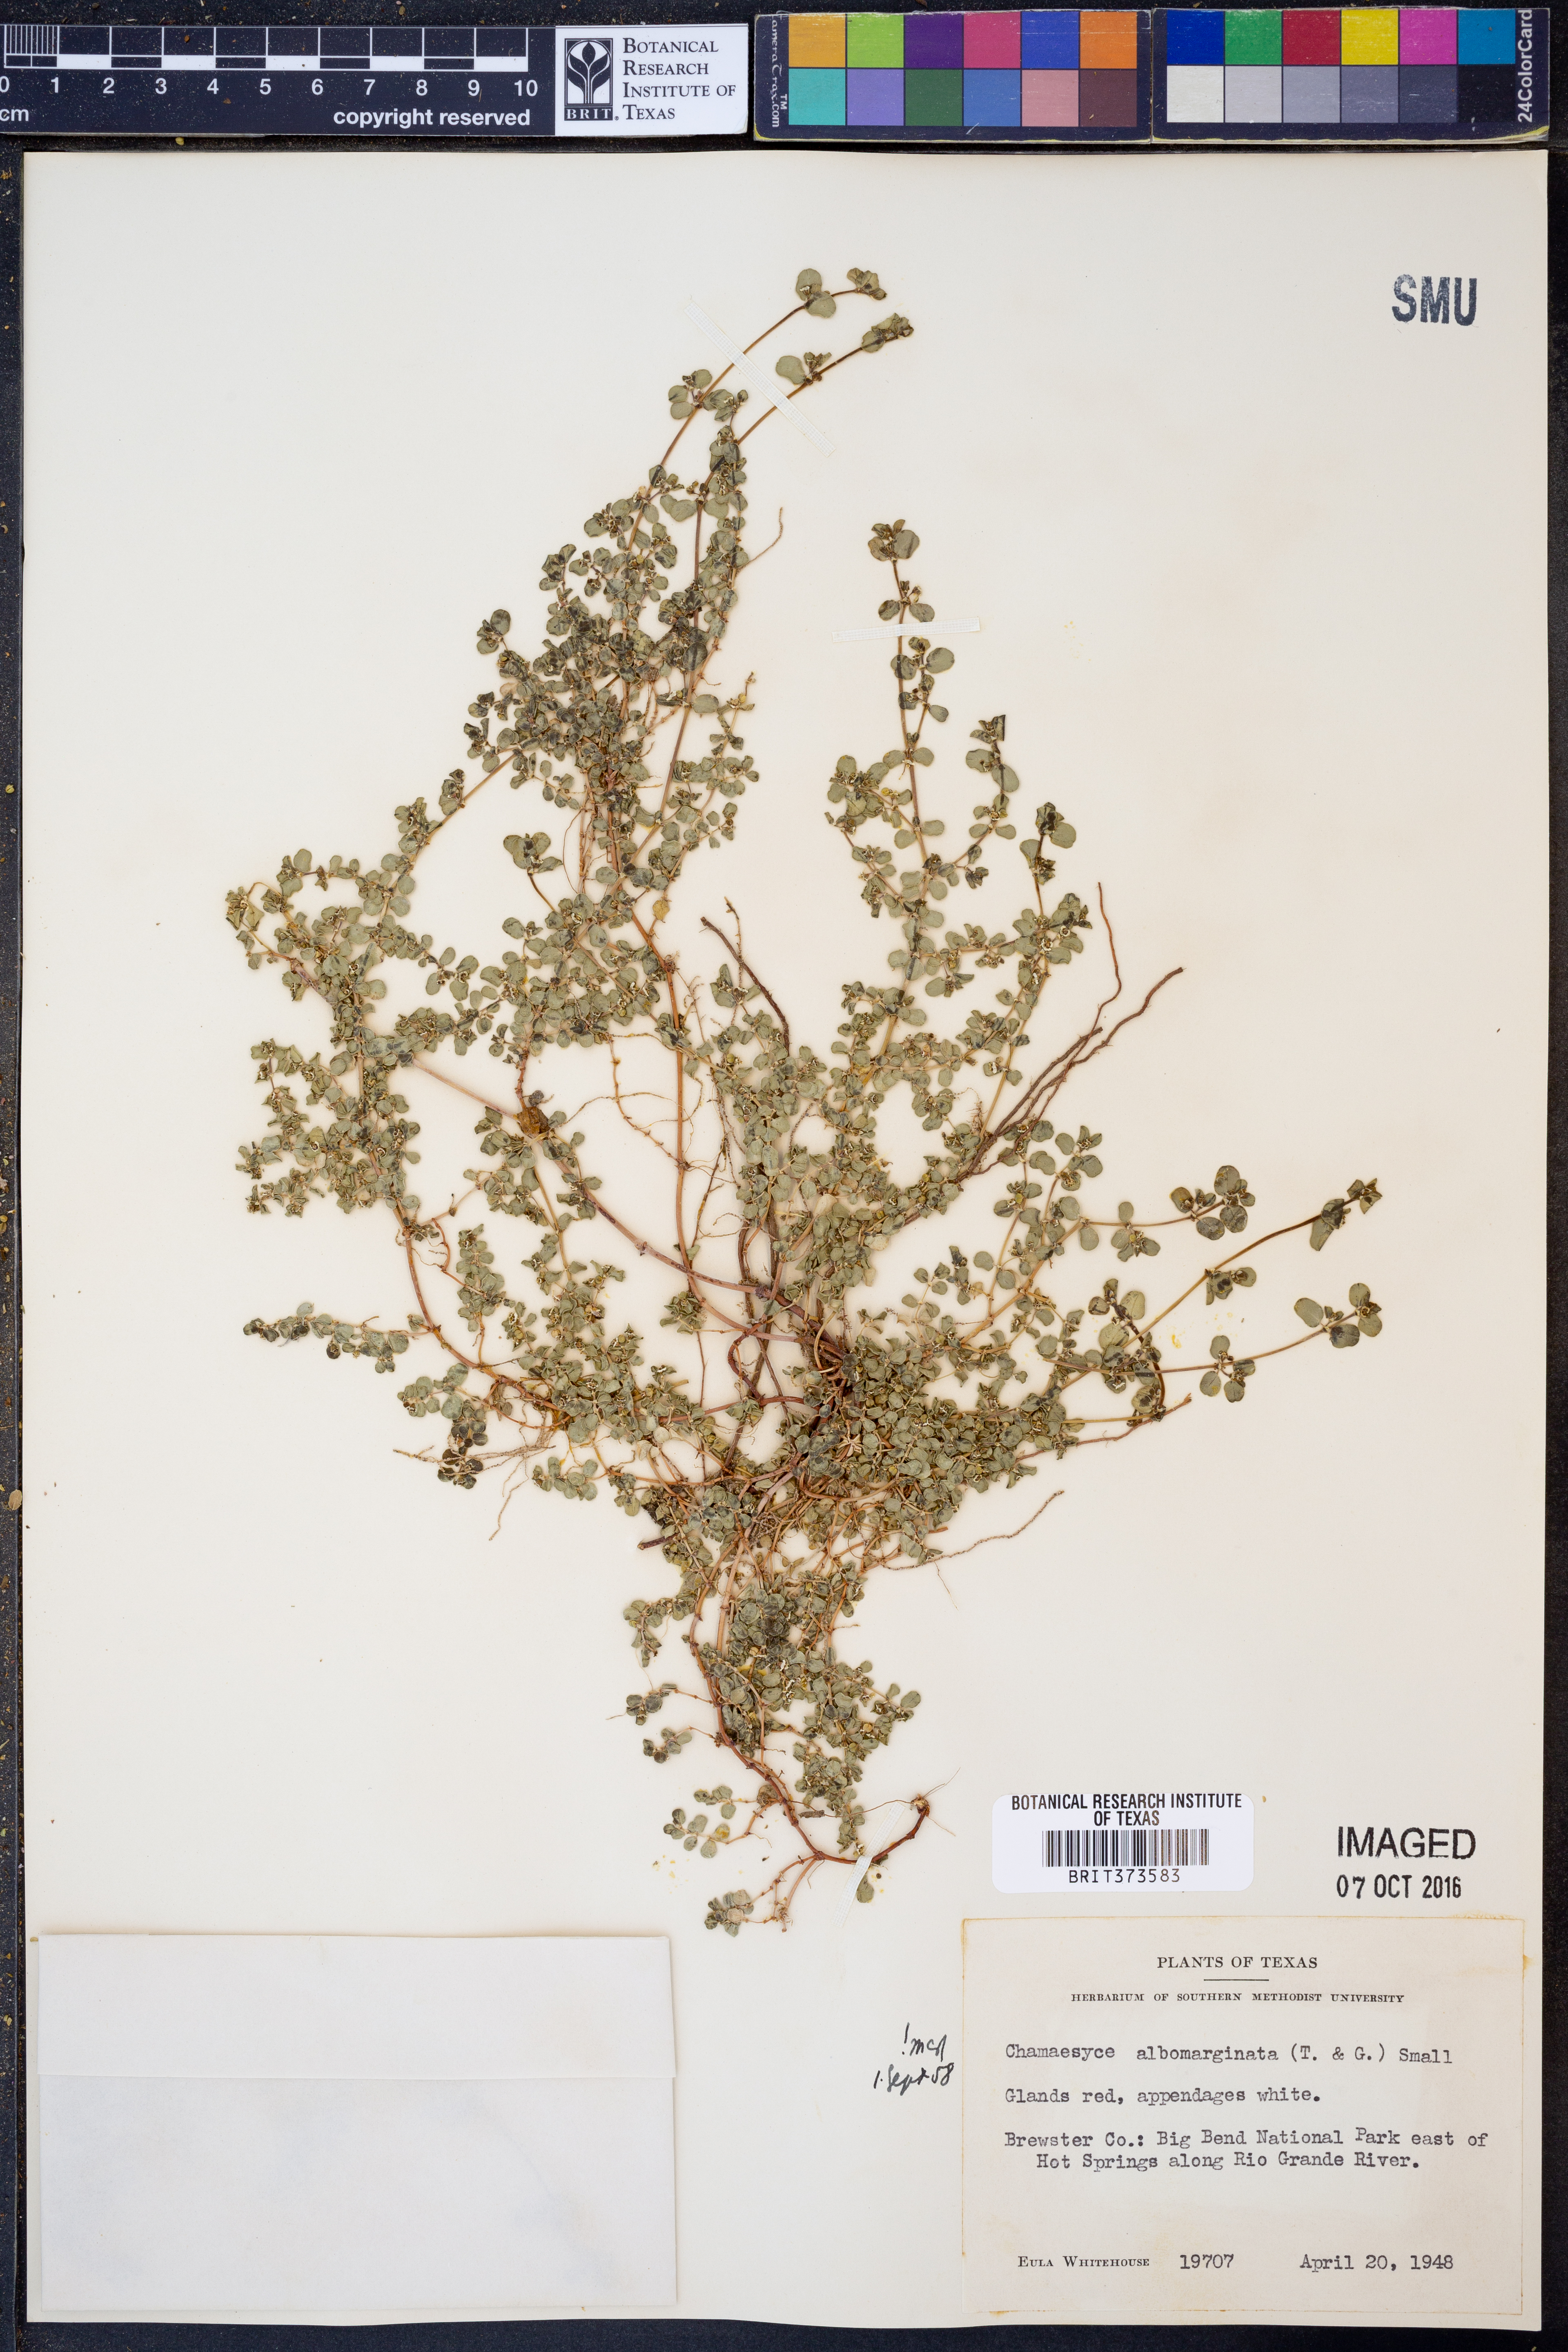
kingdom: Plantae
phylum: Tracheophyta
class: Magnoliopsida
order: Malpighiales
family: Euphorbiaceae
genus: Euphorbia
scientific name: Euphorbia albomarginata
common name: Whitemargin sandmat
